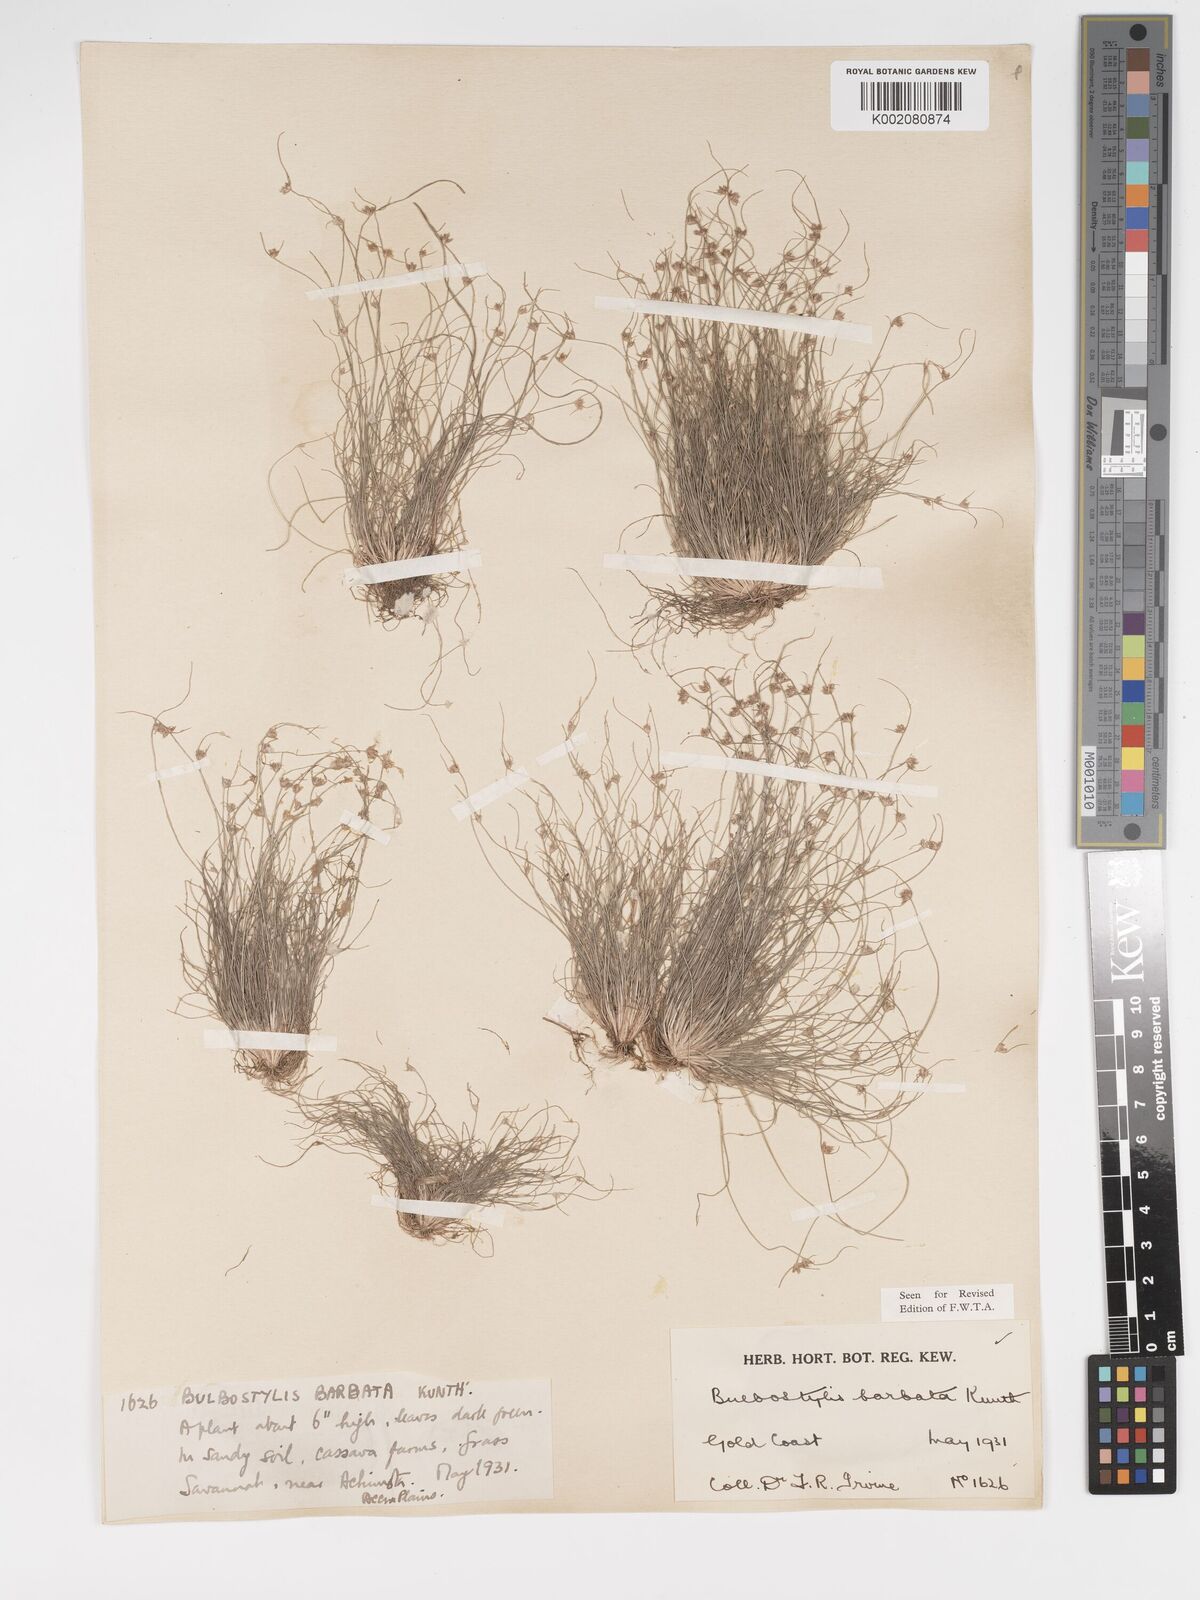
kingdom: Plantae
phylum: Tracheophyta
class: Liliopsida
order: Poales
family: Cyperaceae
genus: Bulbostylis
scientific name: Bulbostylis barbata
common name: Watergrass
